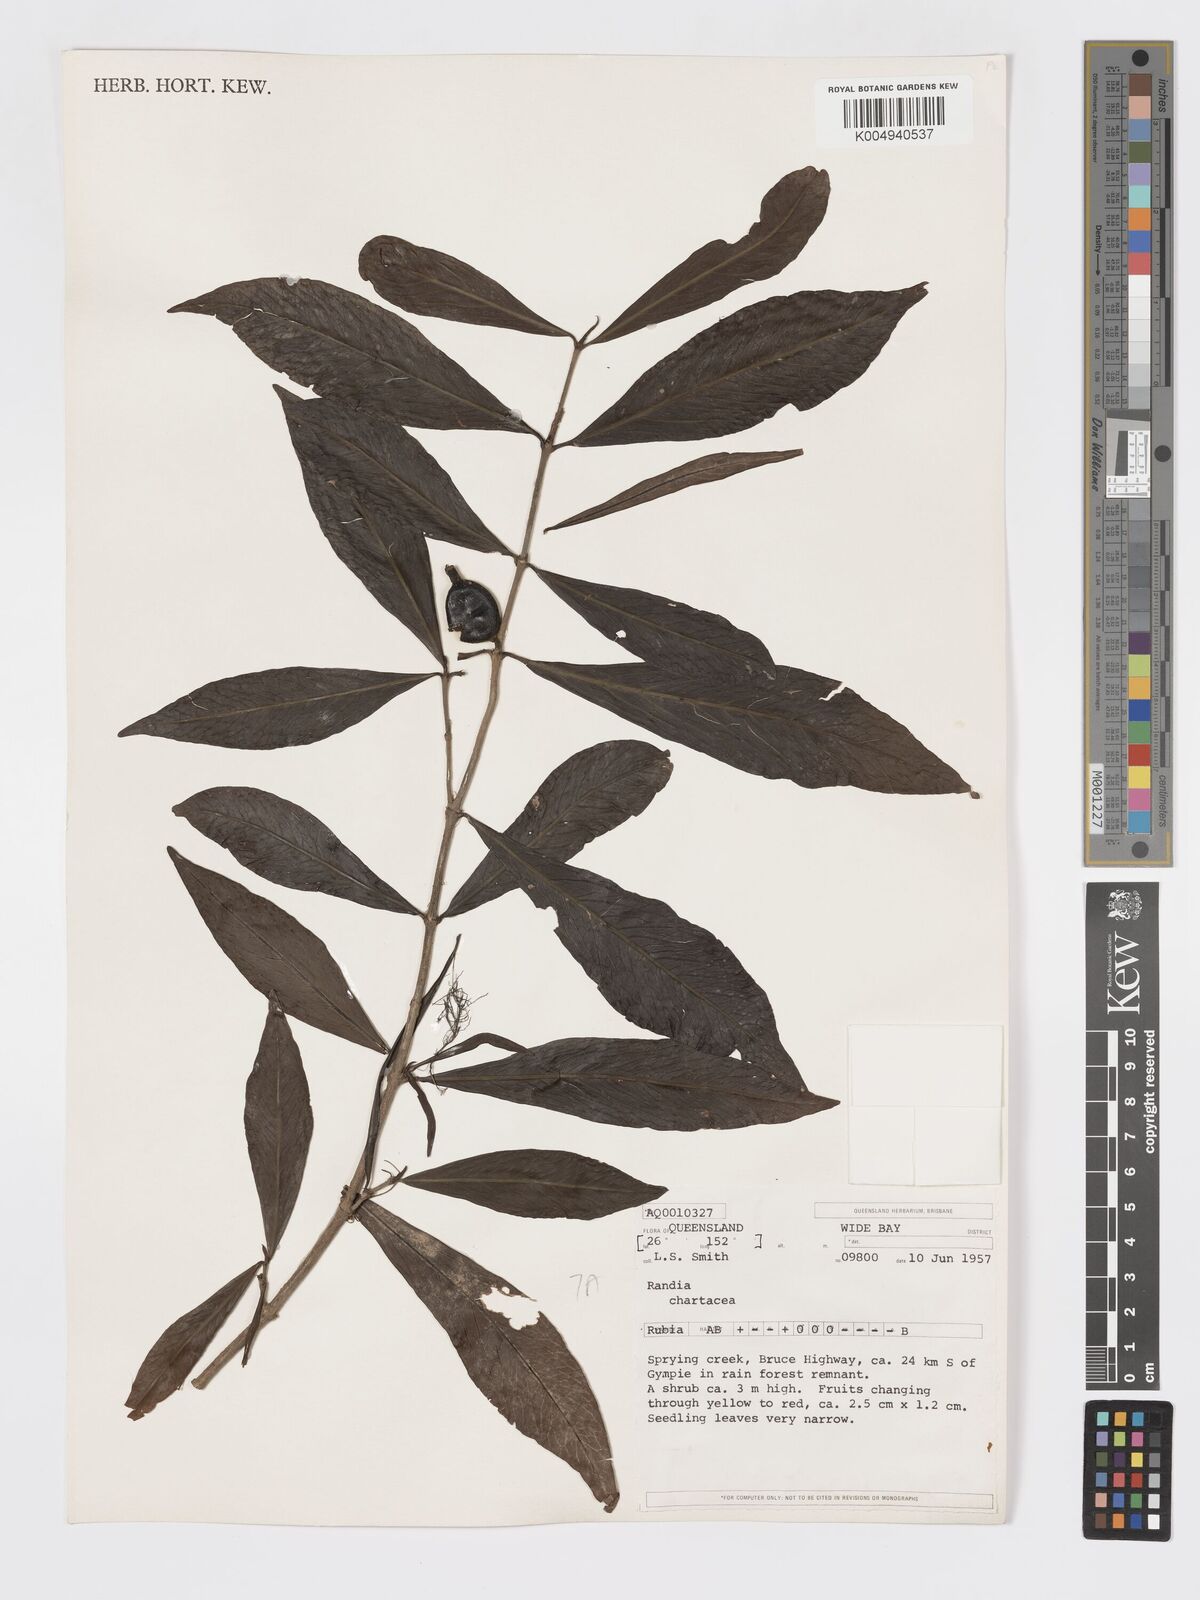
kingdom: Plantae
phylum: Tracheophyta
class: Magnoliopsida
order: Gentianales
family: Rubiaceae
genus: Atractocarpus
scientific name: Atractocarpus chartaceus
